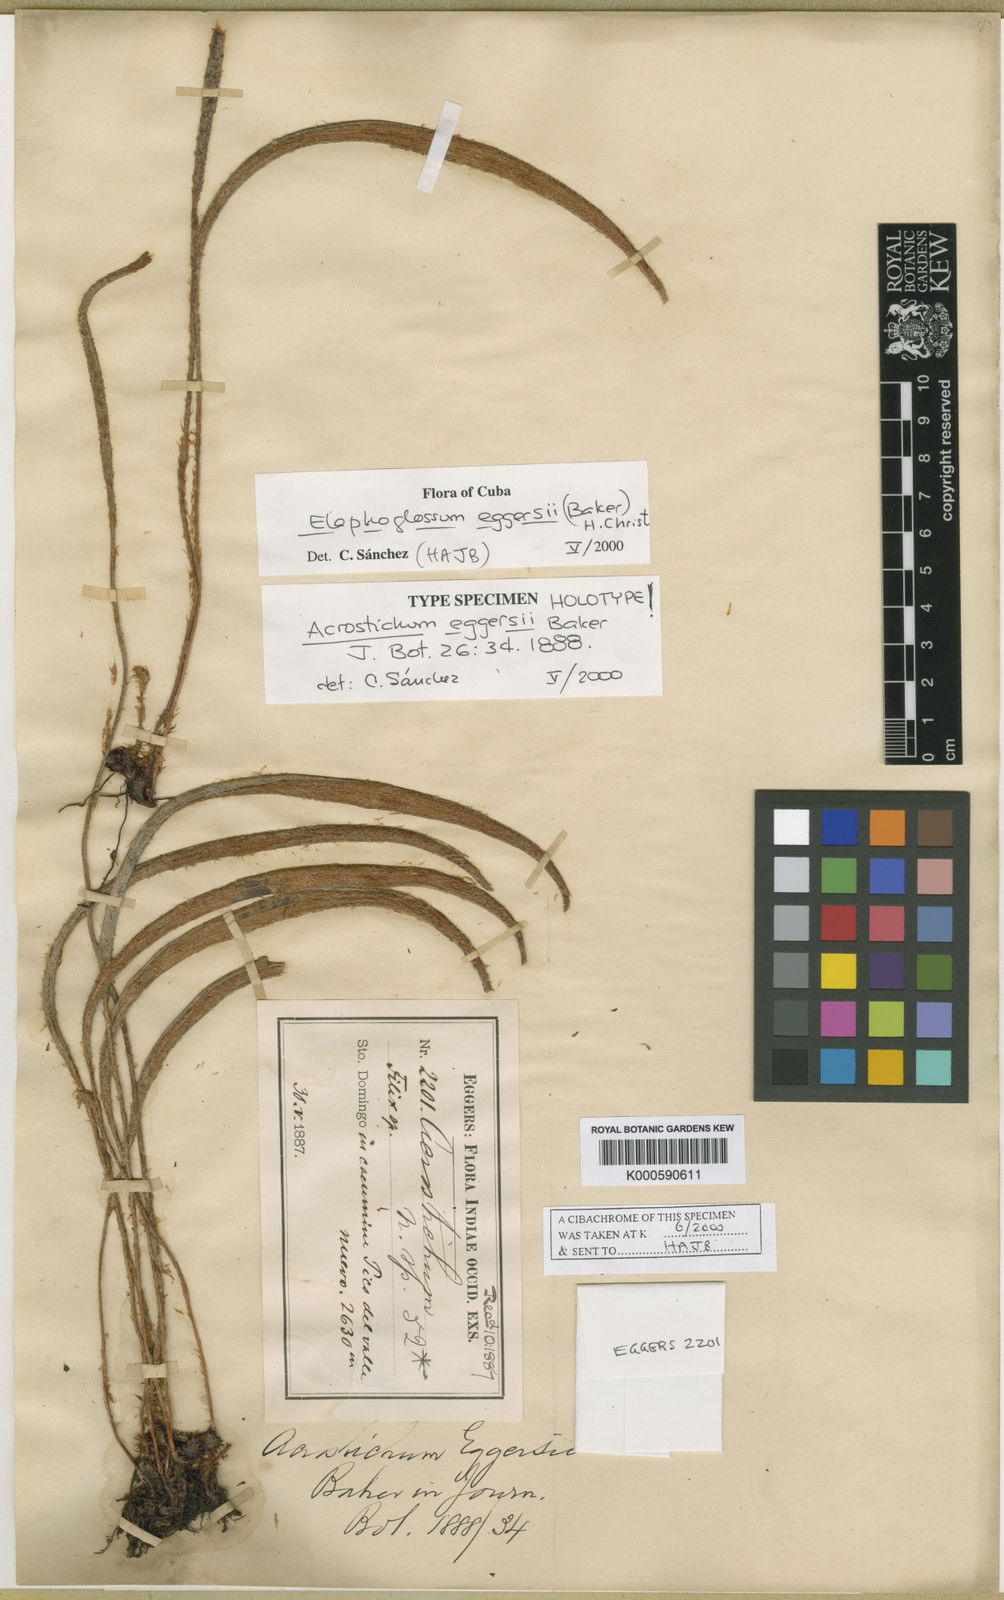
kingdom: Plantae
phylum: Tracheophyta
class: Polypodiopsida
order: Polypodiales
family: Dryopteridaceae
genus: Elaphoglossum
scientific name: Elaphoglossum eggersii
